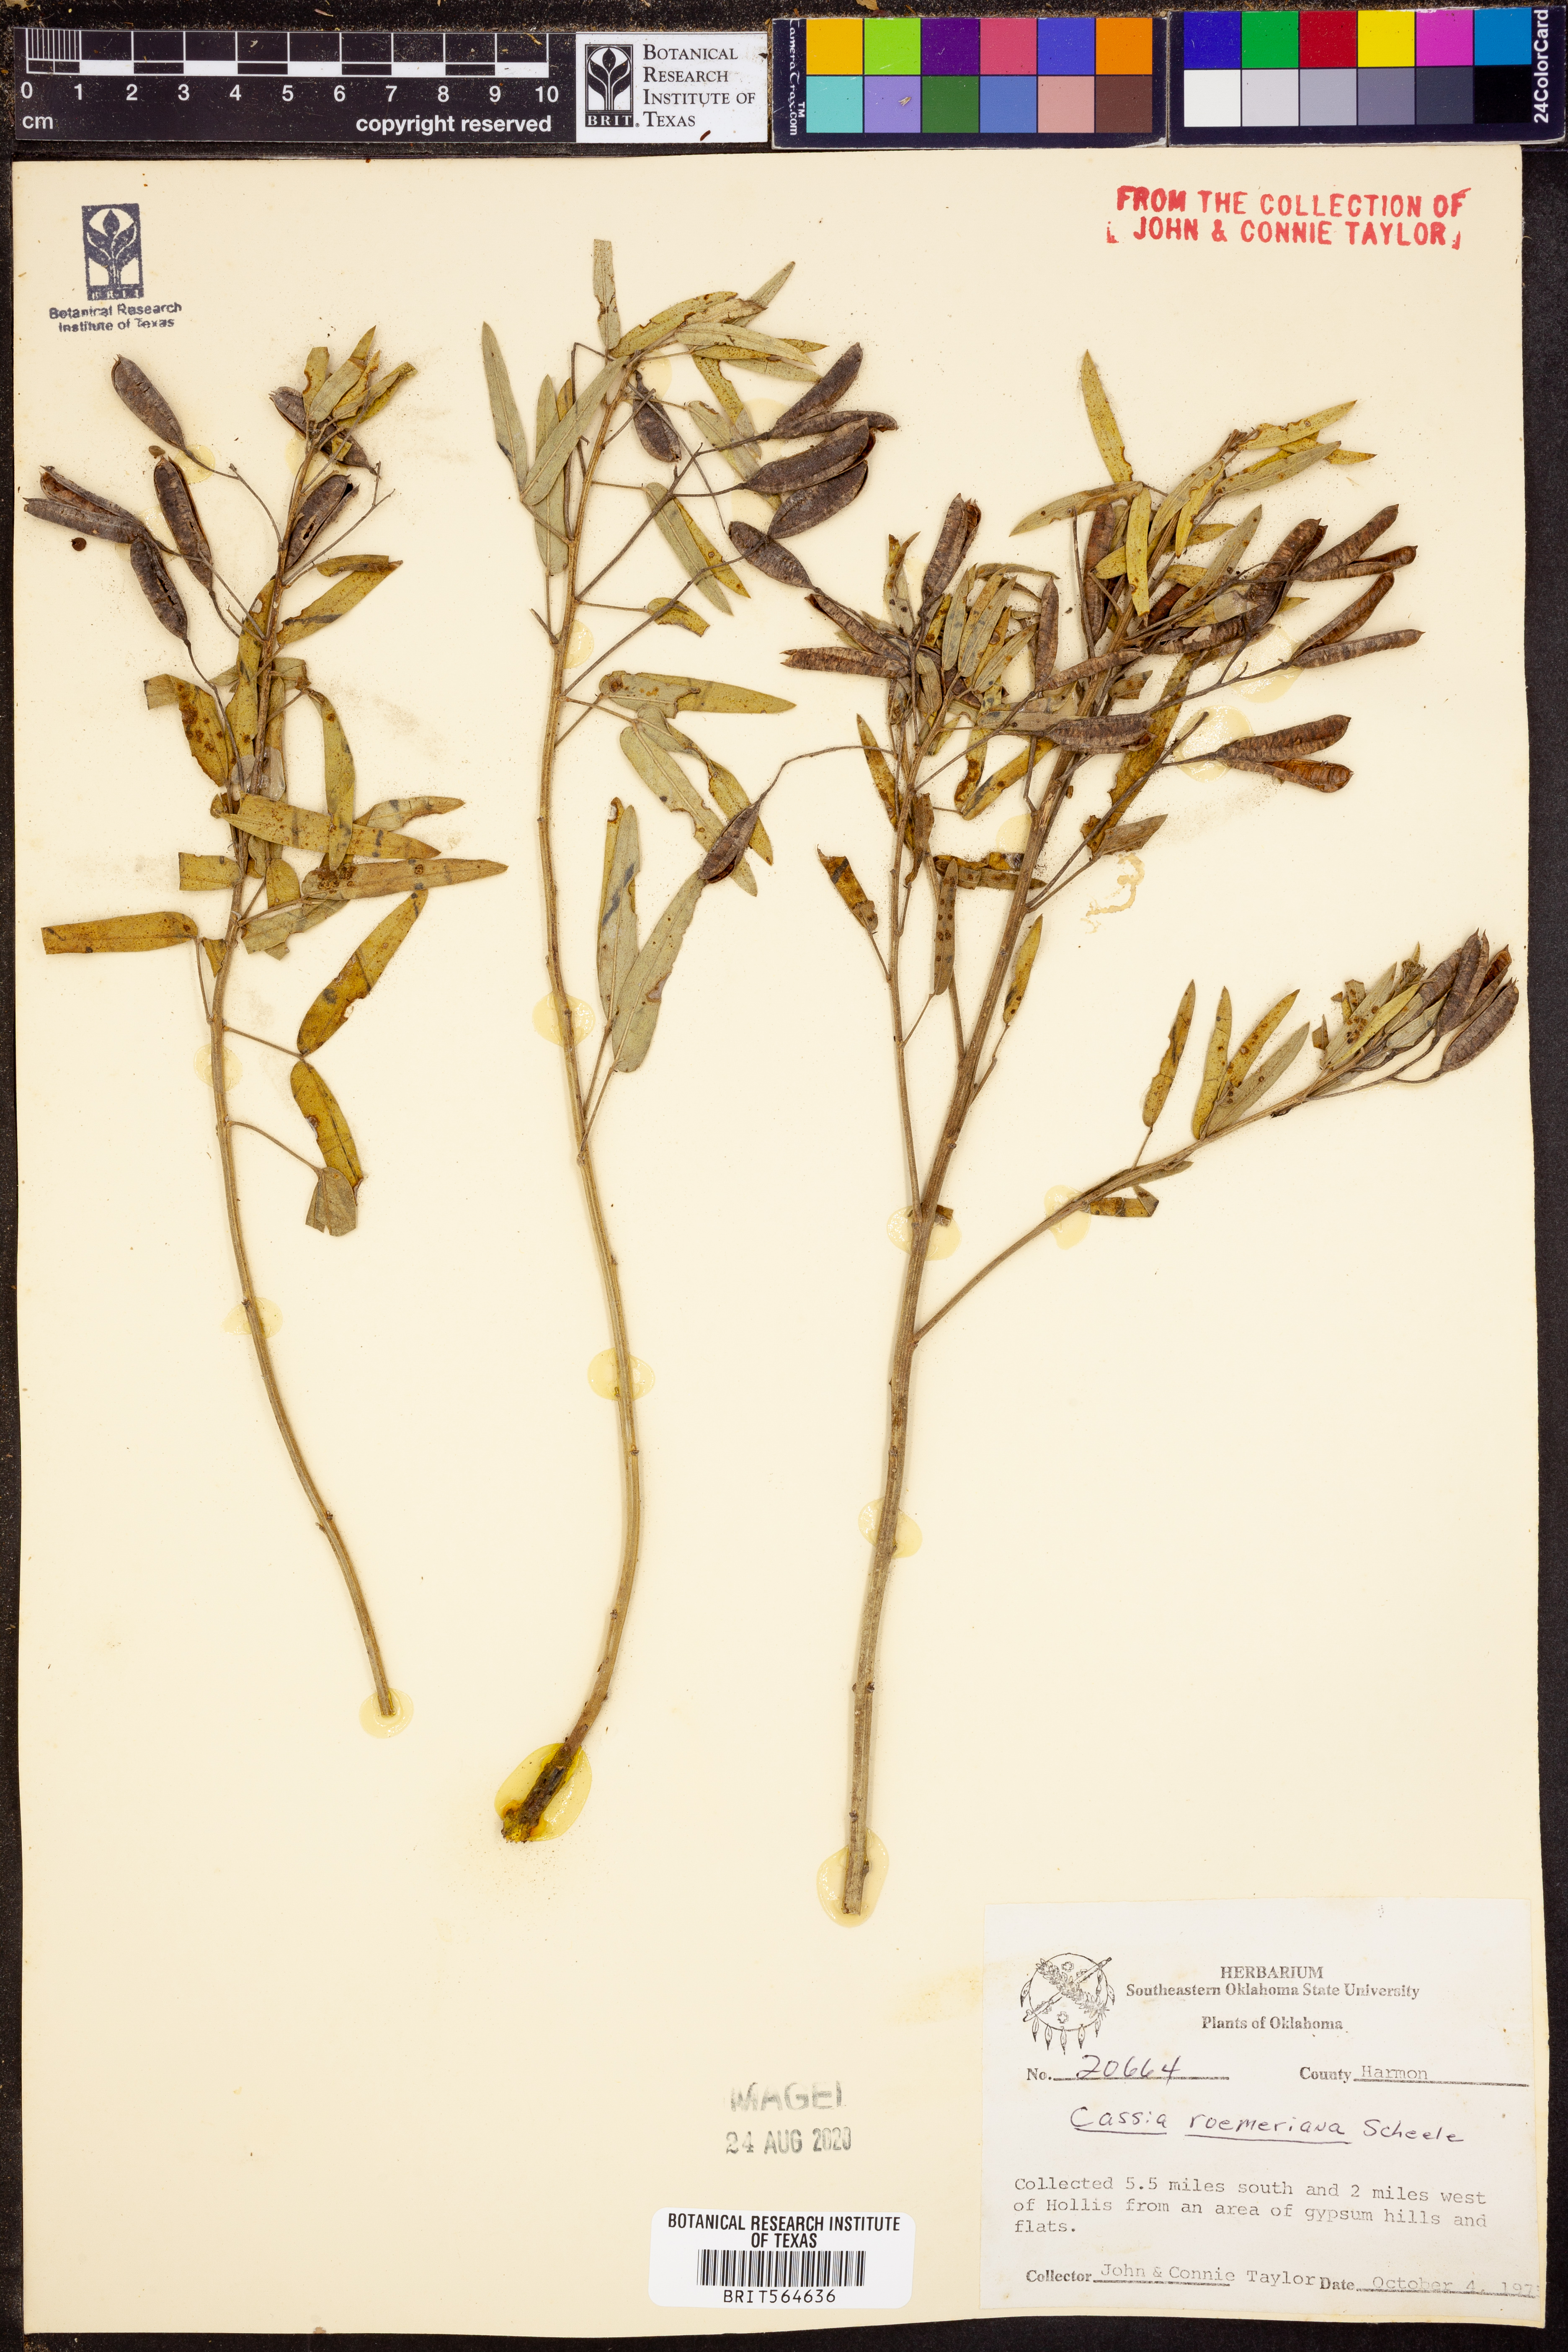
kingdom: Plantae
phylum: Tracheophyta
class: Magnoliopsida
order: Fabales
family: Fabaceae
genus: Senna
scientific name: Senna roemeriana
